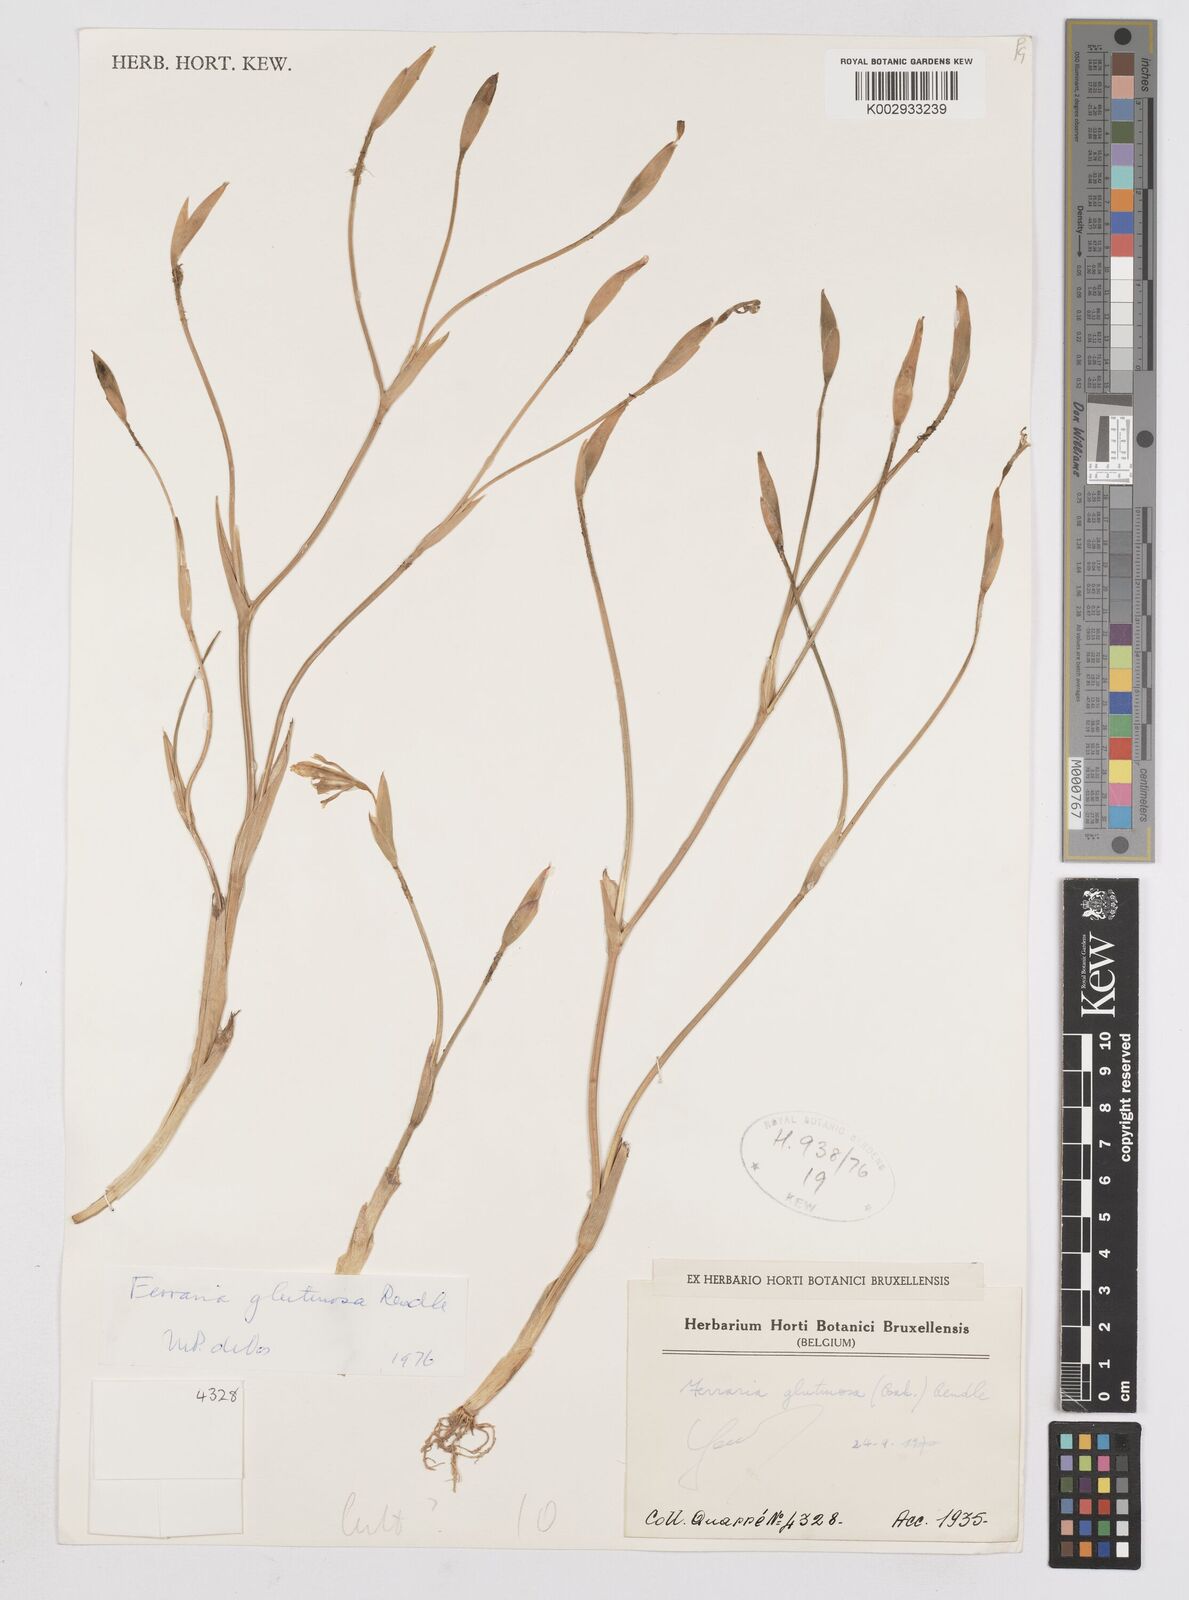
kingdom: Plantae
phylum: Tracheophyta
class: Liliopsida
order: Asparagales
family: Iridaceae
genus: Ferraria
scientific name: Ferraria
